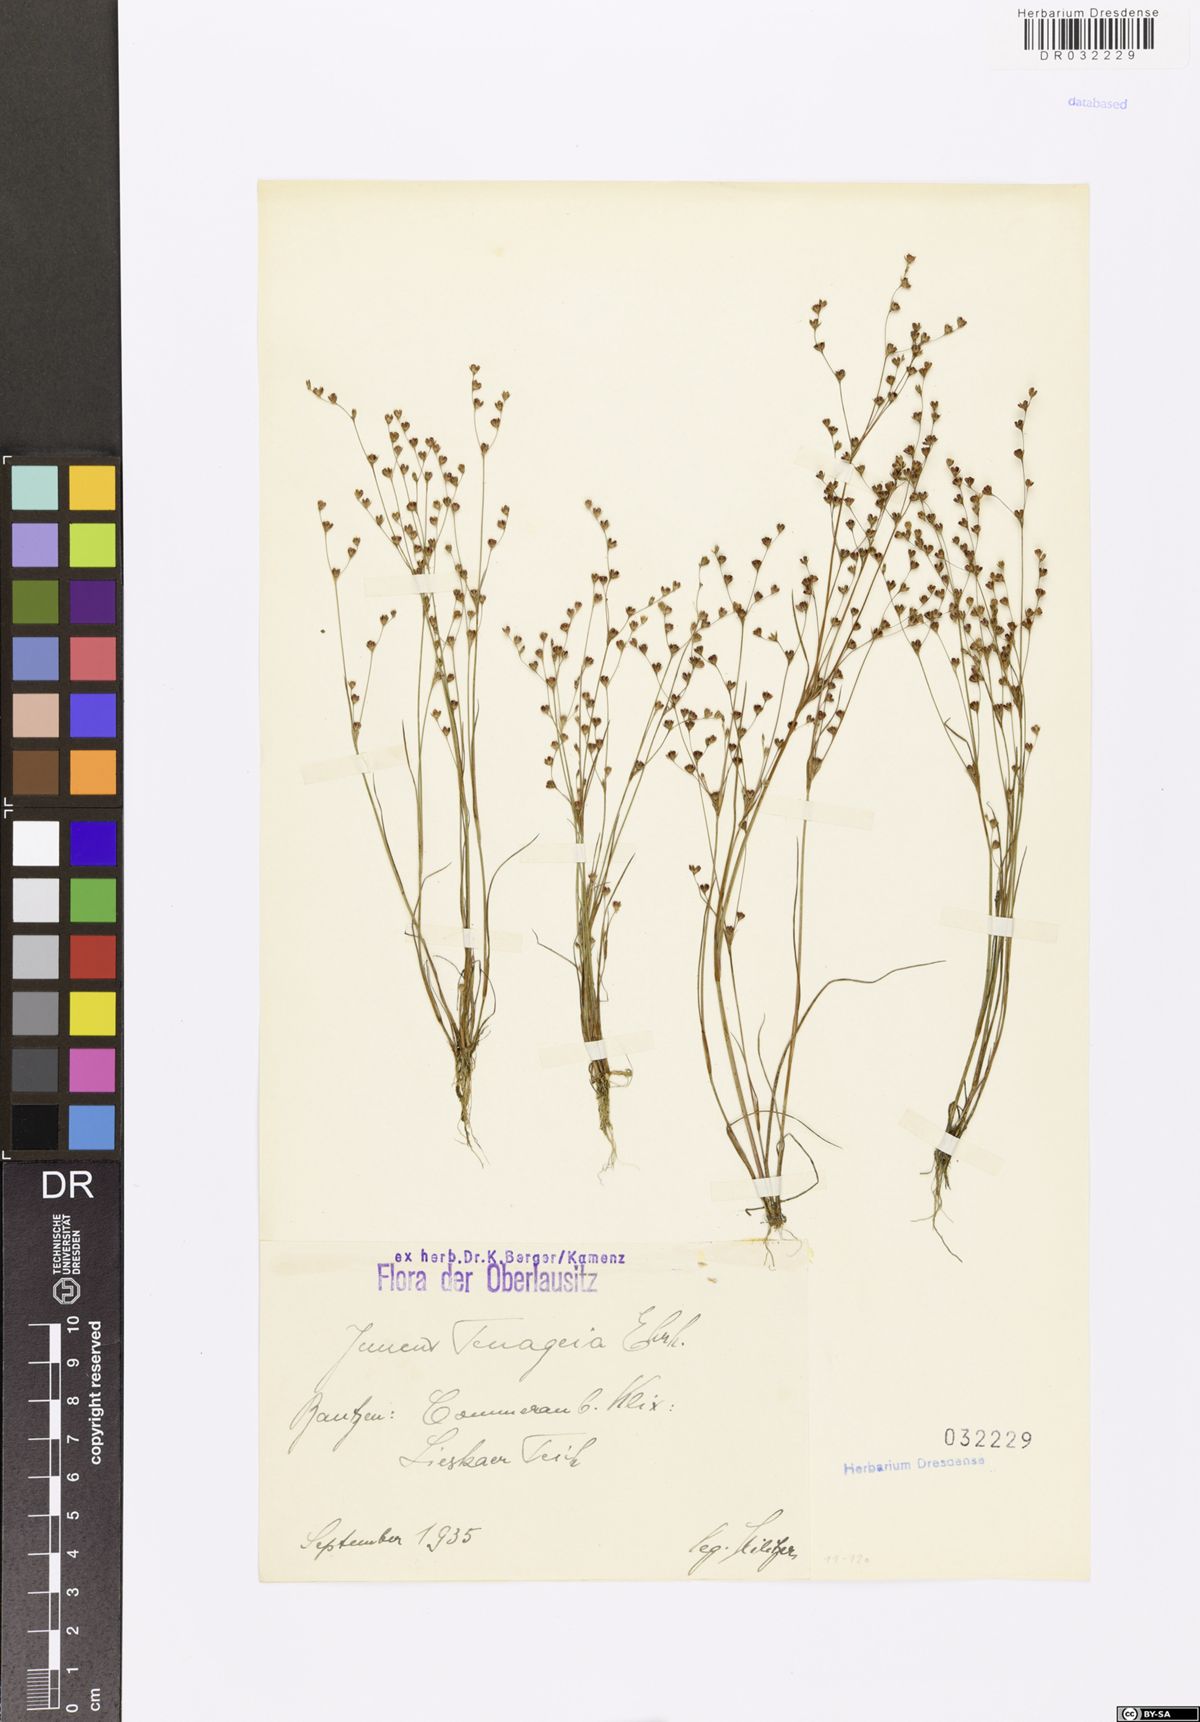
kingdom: Plantae
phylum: Tracheophyta
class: Liliopsida
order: Poales
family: Juncaceae
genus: Juncus
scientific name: Juncus tenageia
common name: Sand rush
